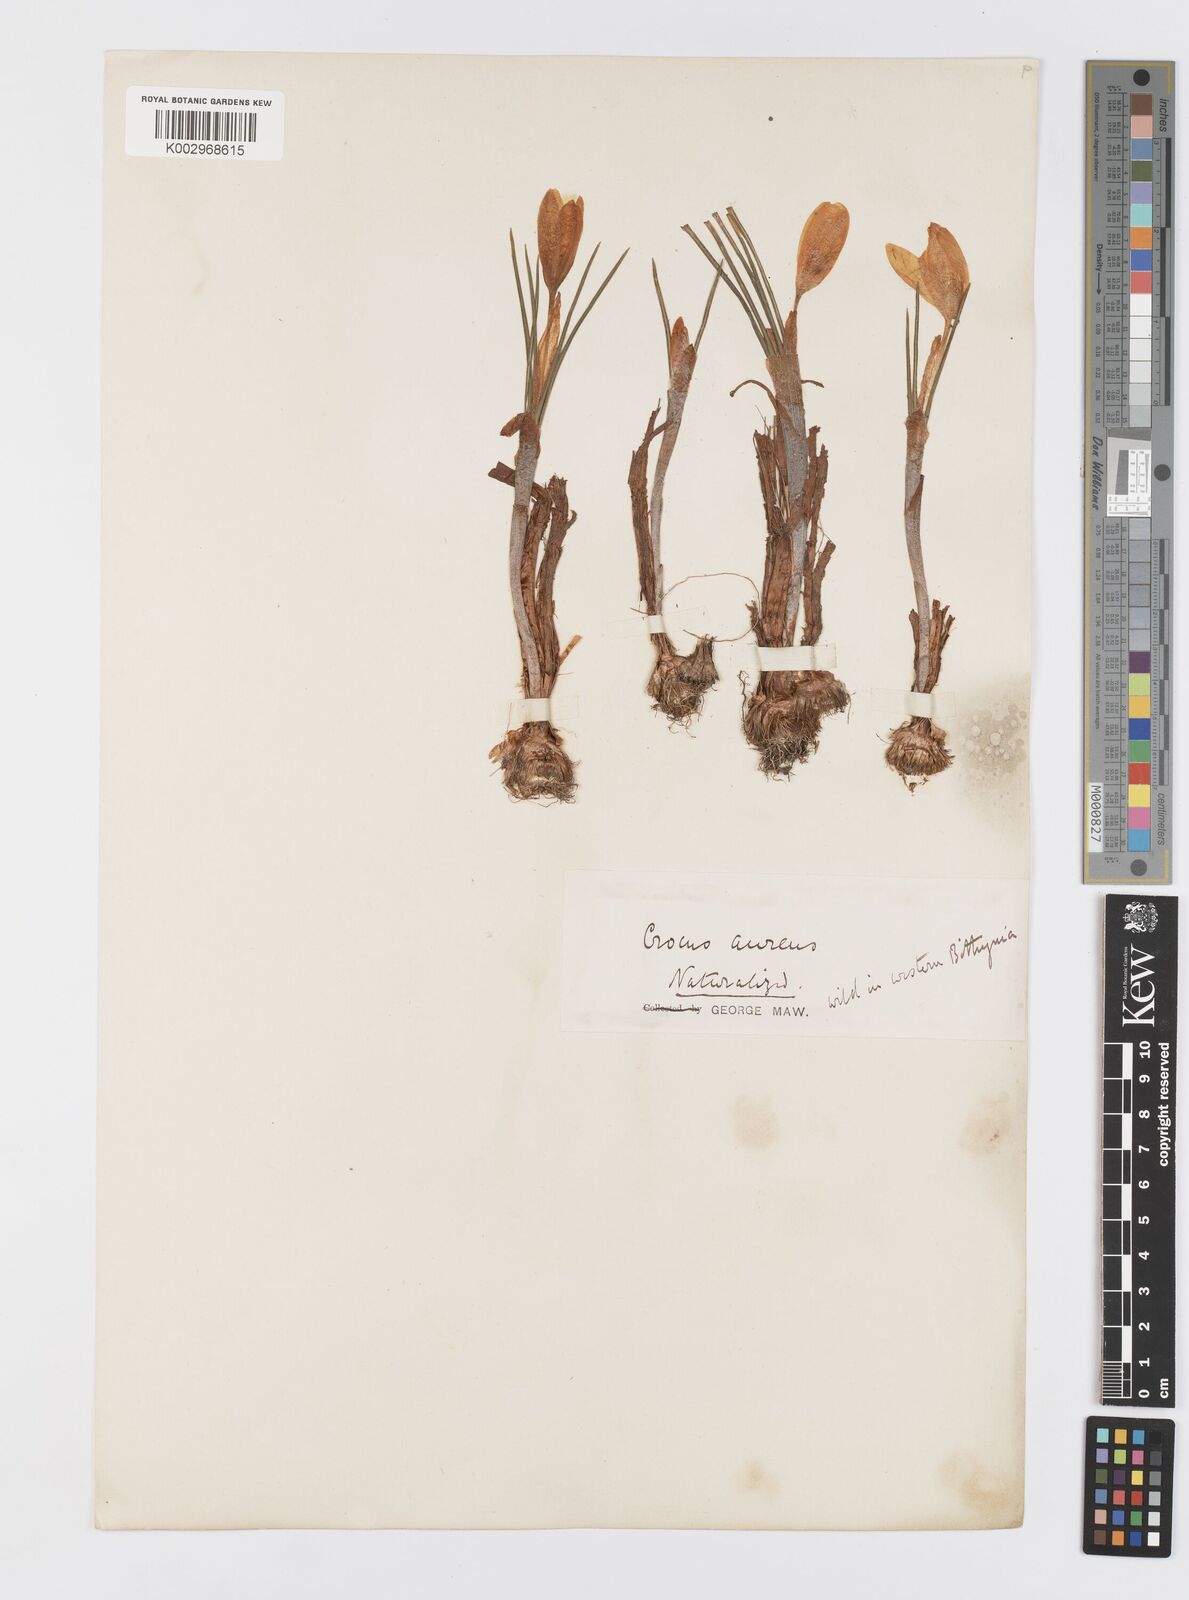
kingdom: Plantae
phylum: Tracheophyta
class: Liliopsida
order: Asparagales
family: Iridaceae
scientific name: Iridaceae
